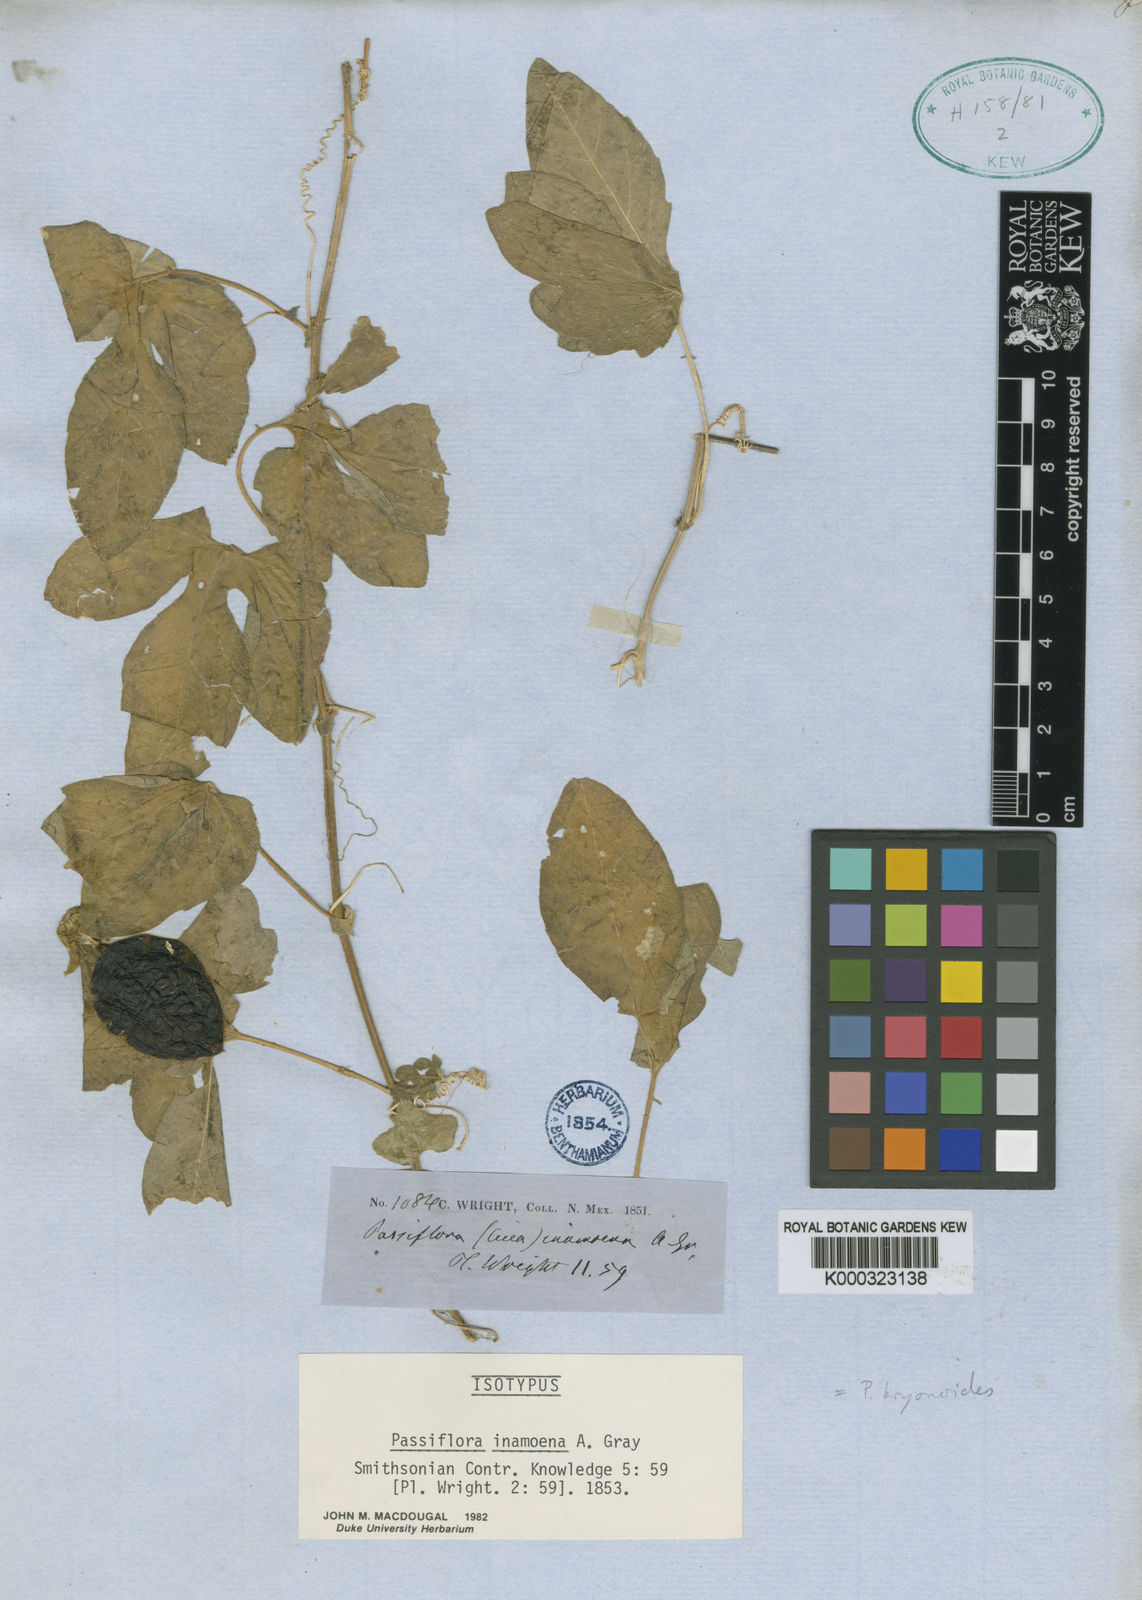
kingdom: Plantae
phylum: Tracheophyta
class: Magnoliopsida
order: Malpighiales
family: Passifloraceae
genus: Passiflora
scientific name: Passiflora bryonioides
